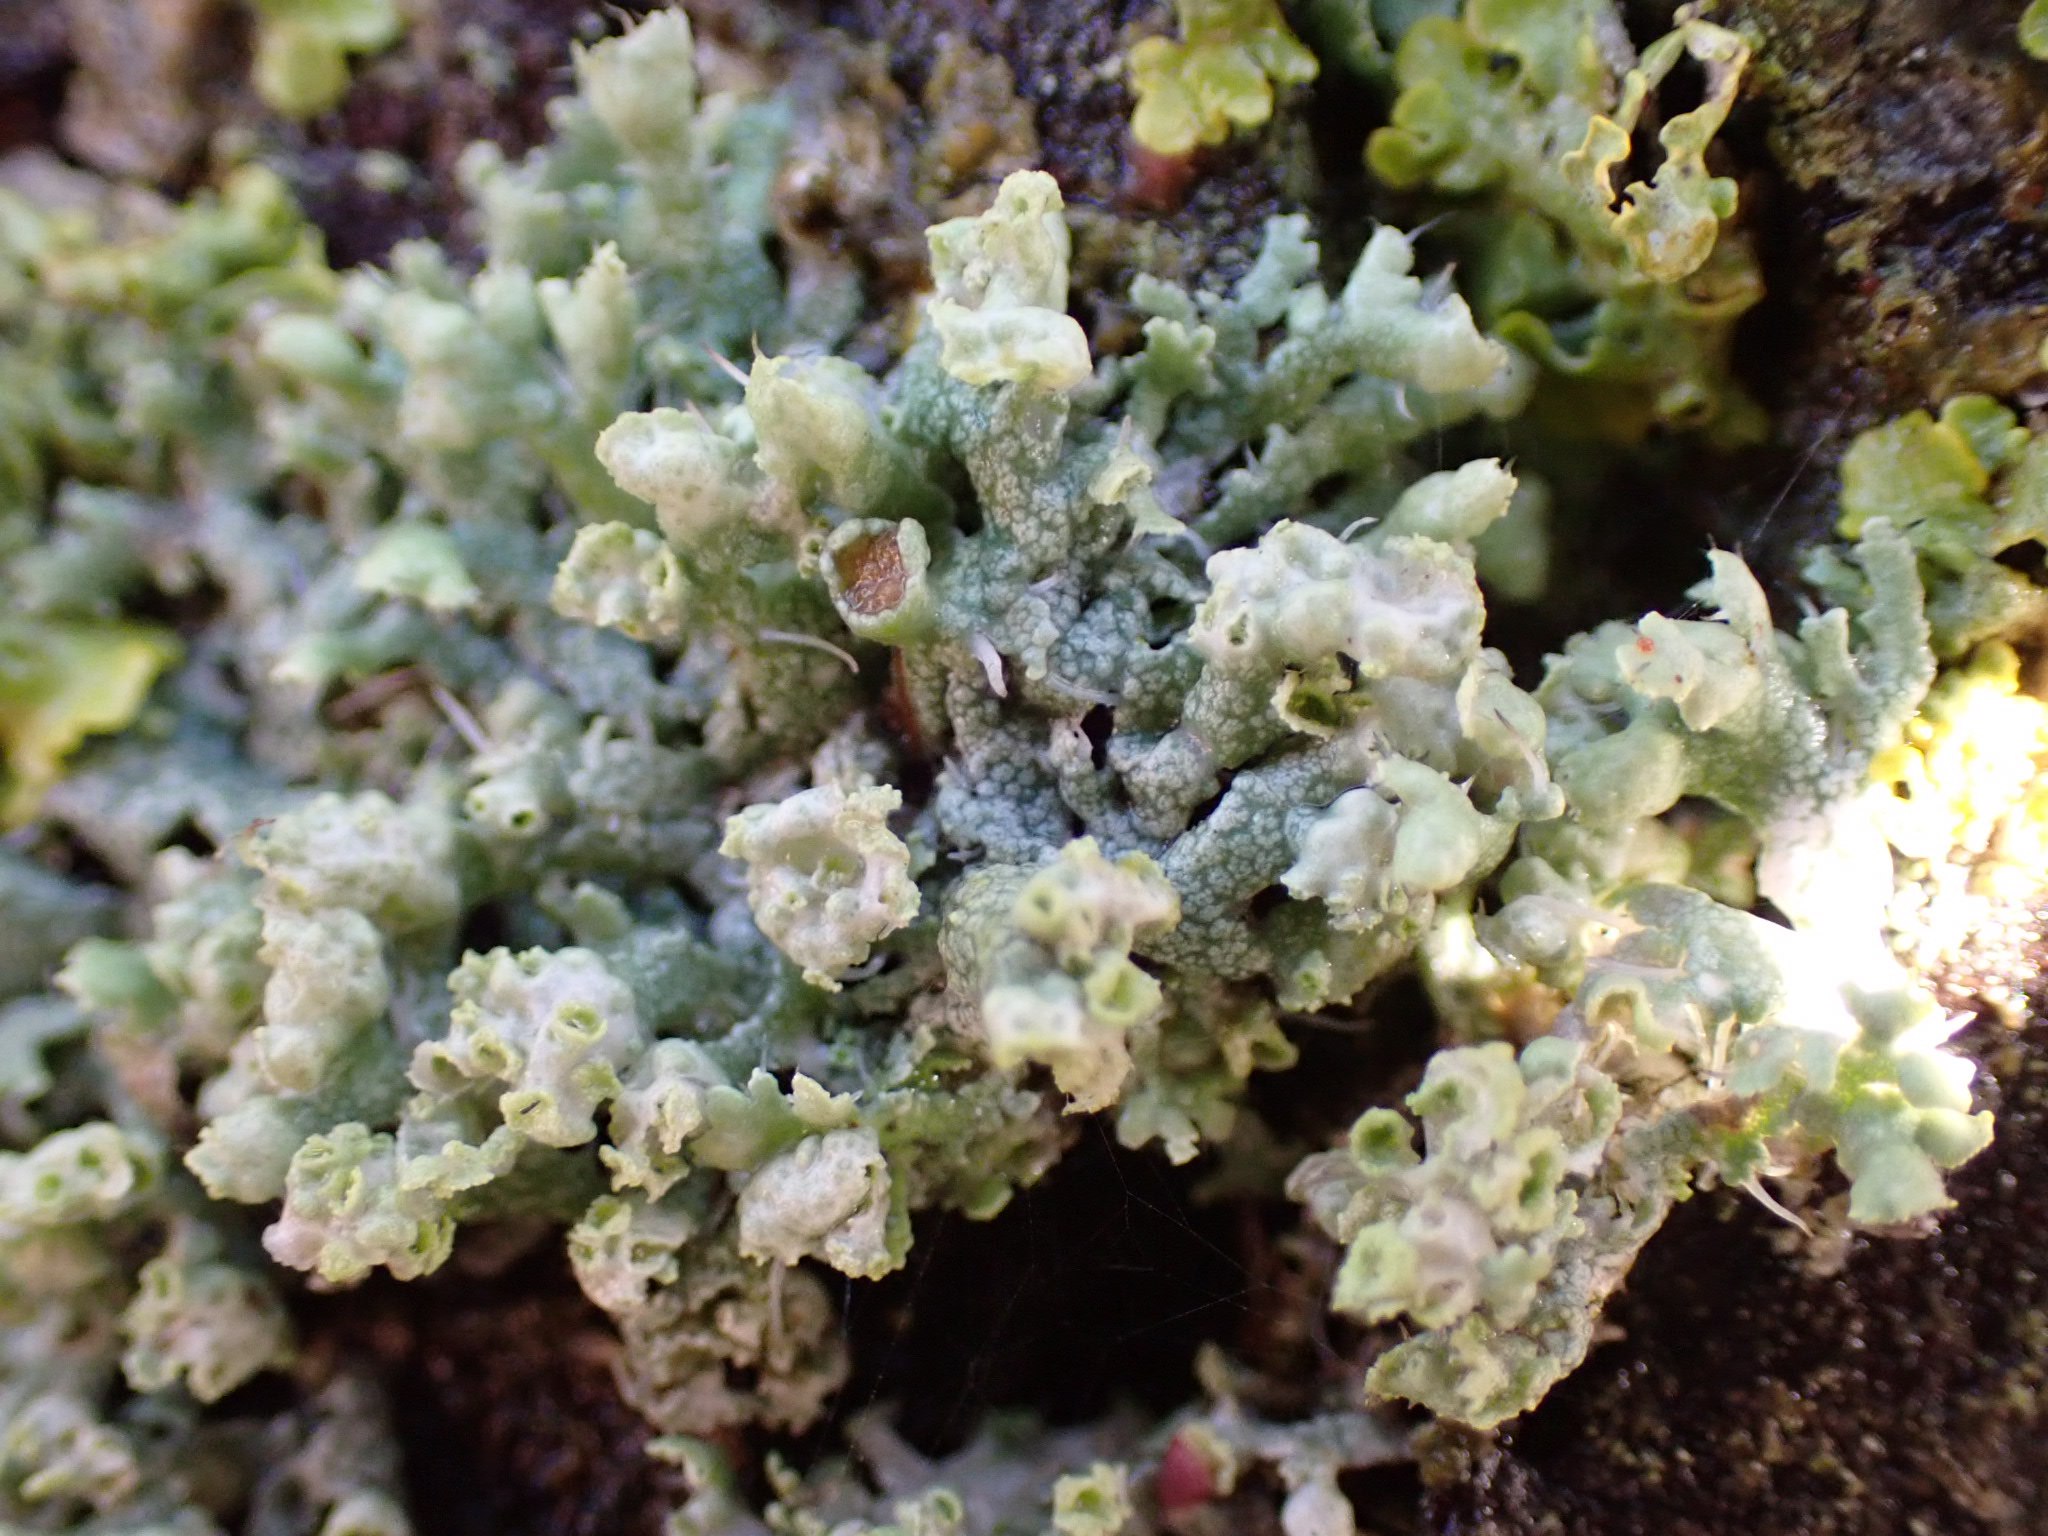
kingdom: Fungi
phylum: Ascomycota
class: Lecanoromycetes
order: Caliciales
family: Physciaceae
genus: Physcia
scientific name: Physcia adscendens
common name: hætte-rosetlav
